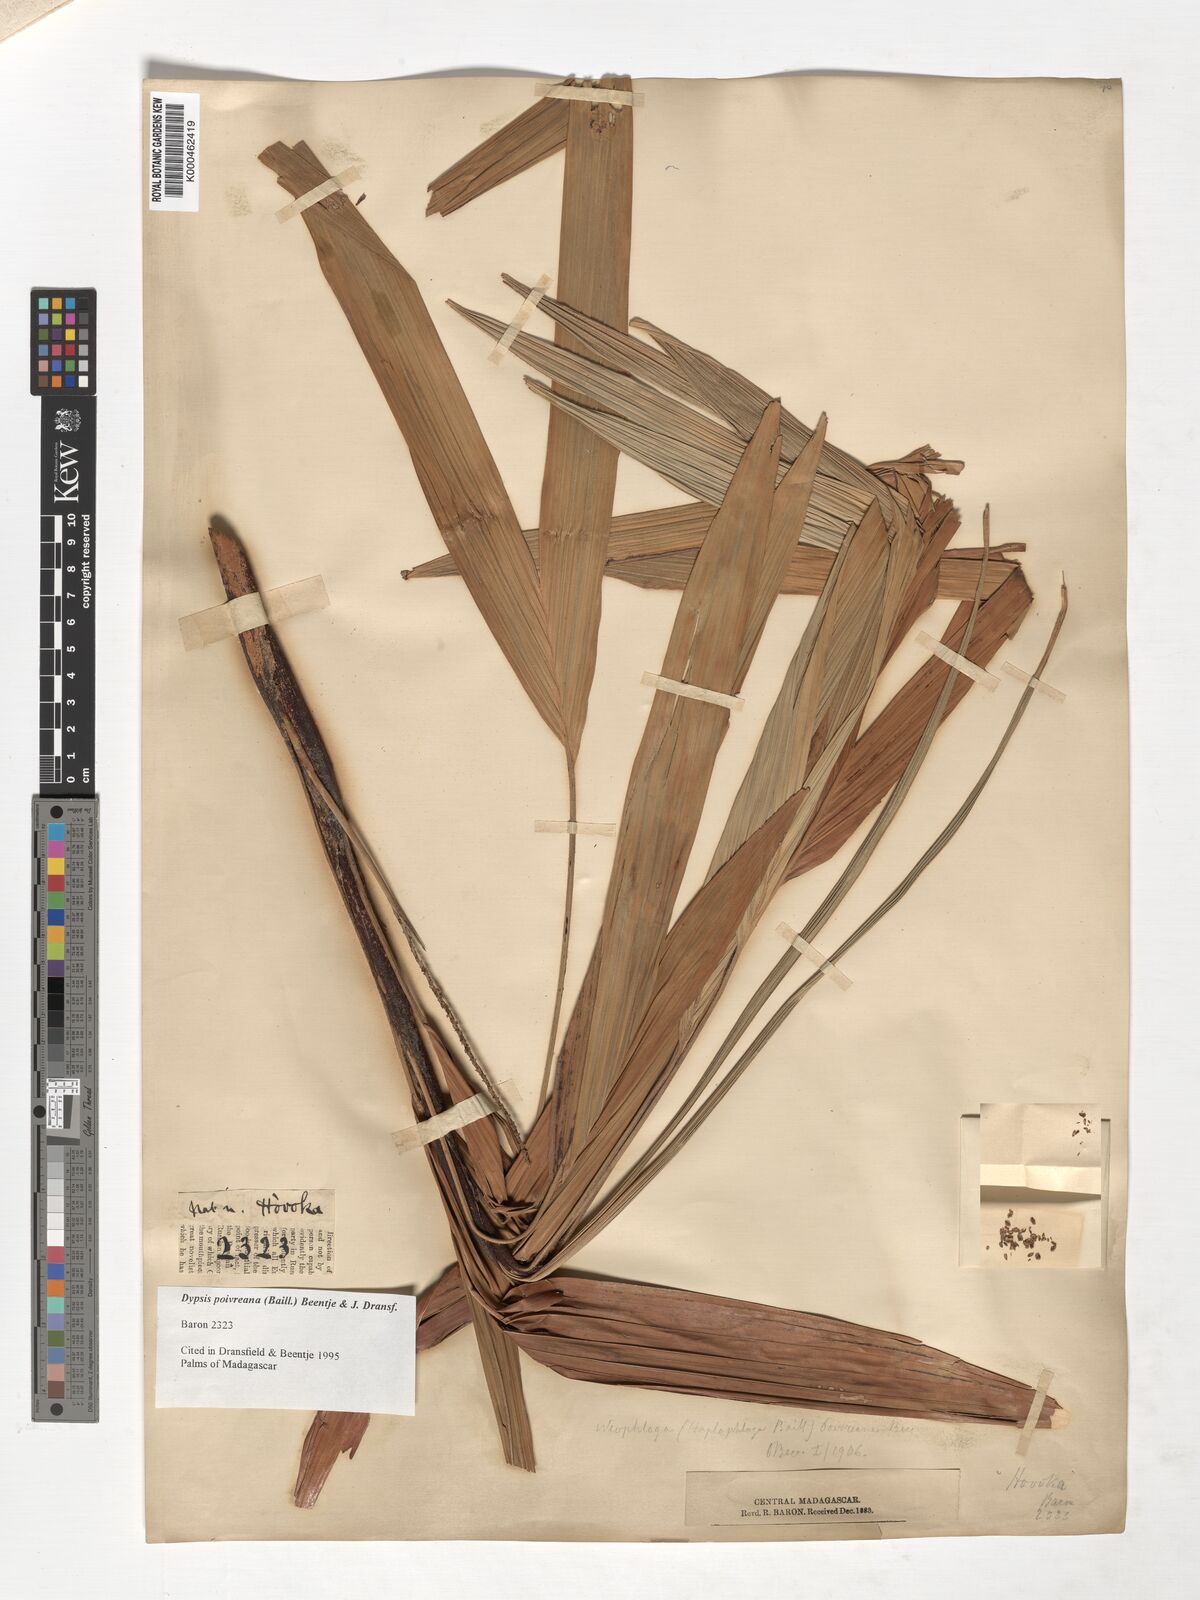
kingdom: Plantae
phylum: Tracheophyta
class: Liliopsida
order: Arecales
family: Arecaceae
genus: Dypsis
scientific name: Dypsis poivreana
